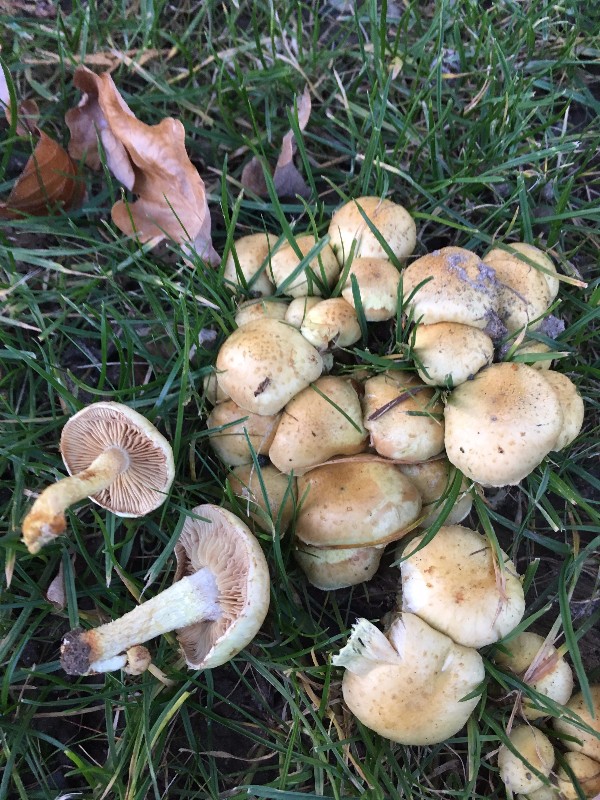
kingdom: Fungi
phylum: Basidiomycota
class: Agaricomycetes
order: Agaricales
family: Strophariaceae
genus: Pholiota
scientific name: Pholiota gummosa
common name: grøngul skælhat
